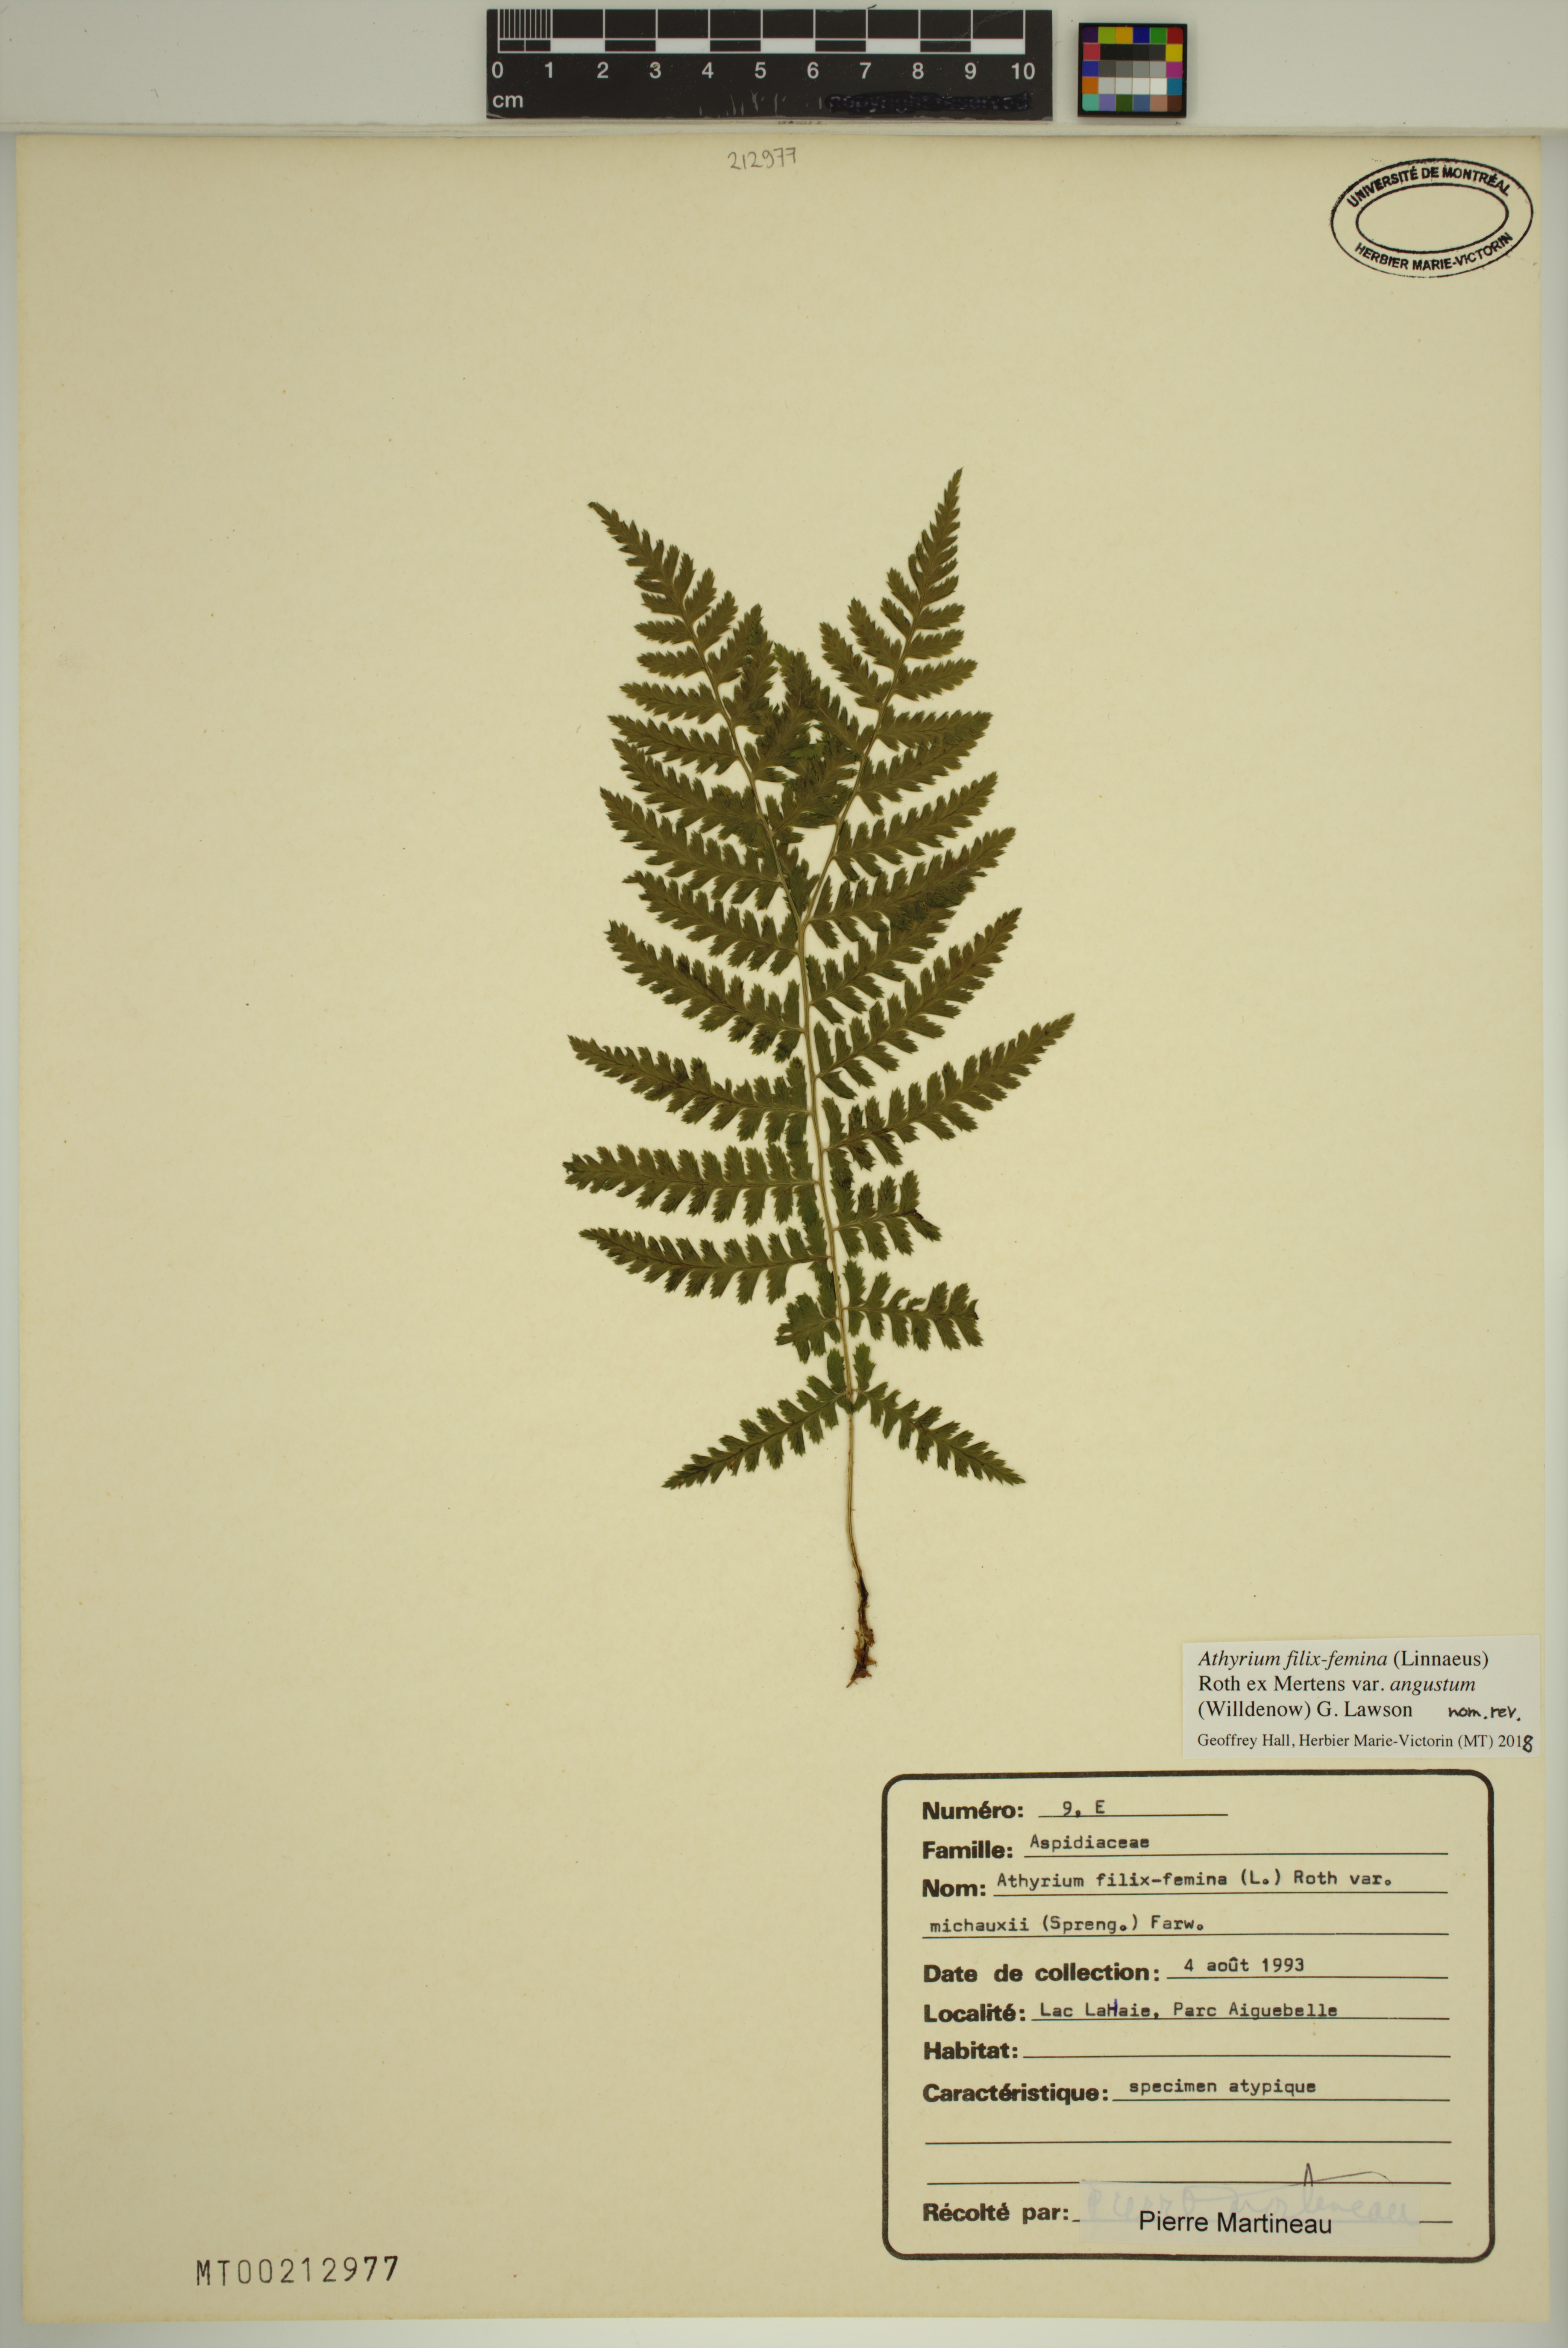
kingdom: Plantae
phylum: Tracheophyta
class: Polypodiopsida
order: Polypodiales
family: Athyriaceae
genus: Athyrium
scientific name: Athyrium angustum
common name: Northern lady fern
